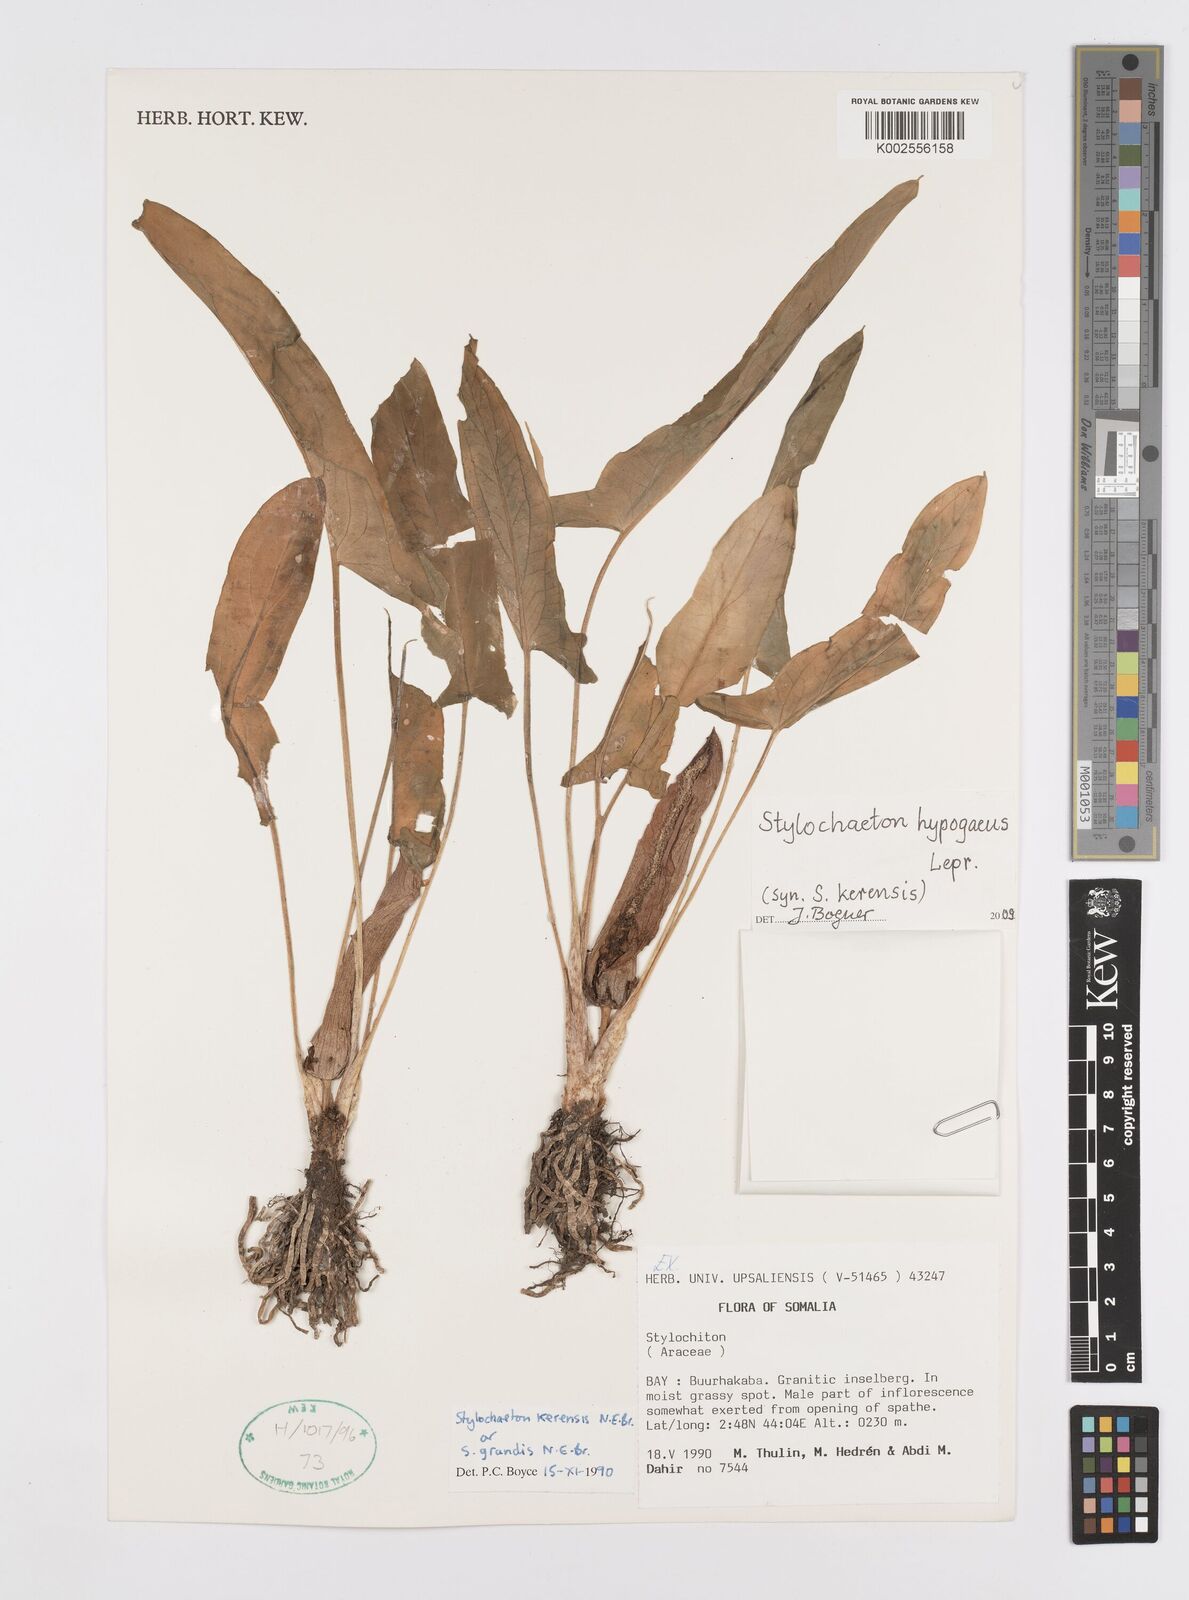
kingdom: Plantae
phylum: Tracheophyta
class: Liliopsida
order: Alismatales
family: Araceae
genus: Stylochaeton
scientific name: Stylochaeton hypogeum
